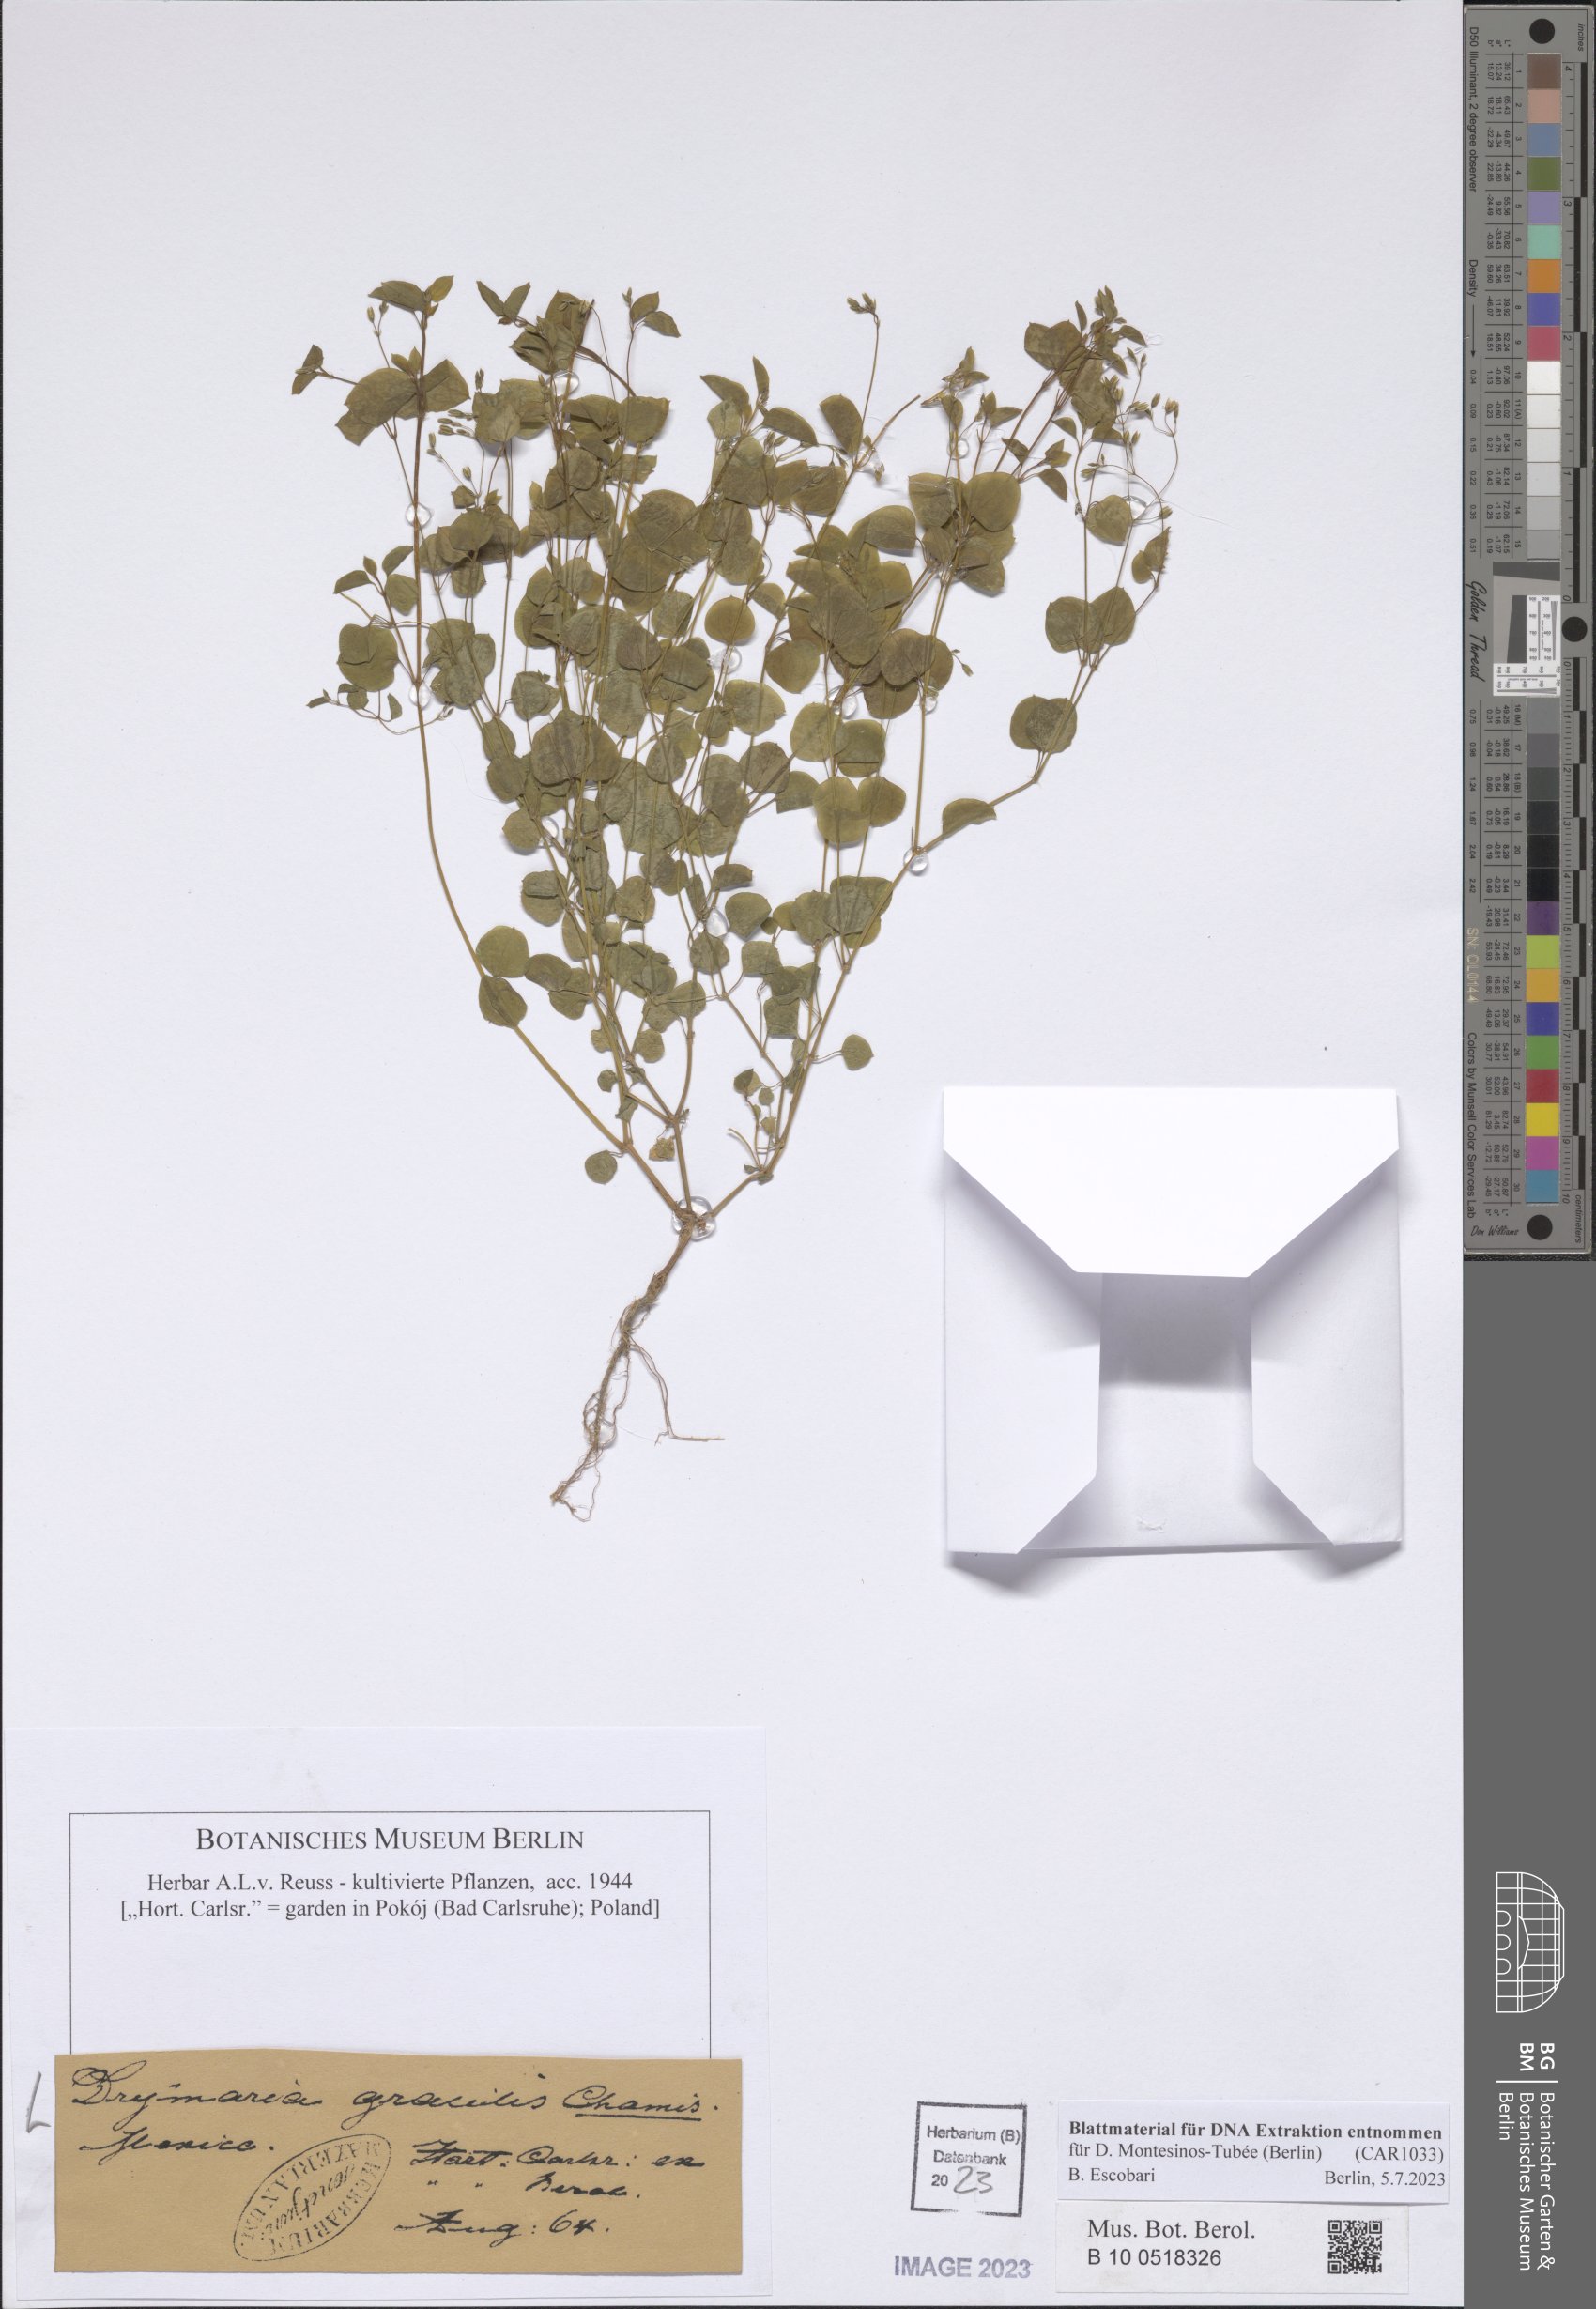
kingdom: Plantae
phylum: Tracheophyta
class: Magnoliopsida
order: Caryophyllales
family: Caryophyllaceae
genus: Drymaria
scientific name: Drymaria gracilis
